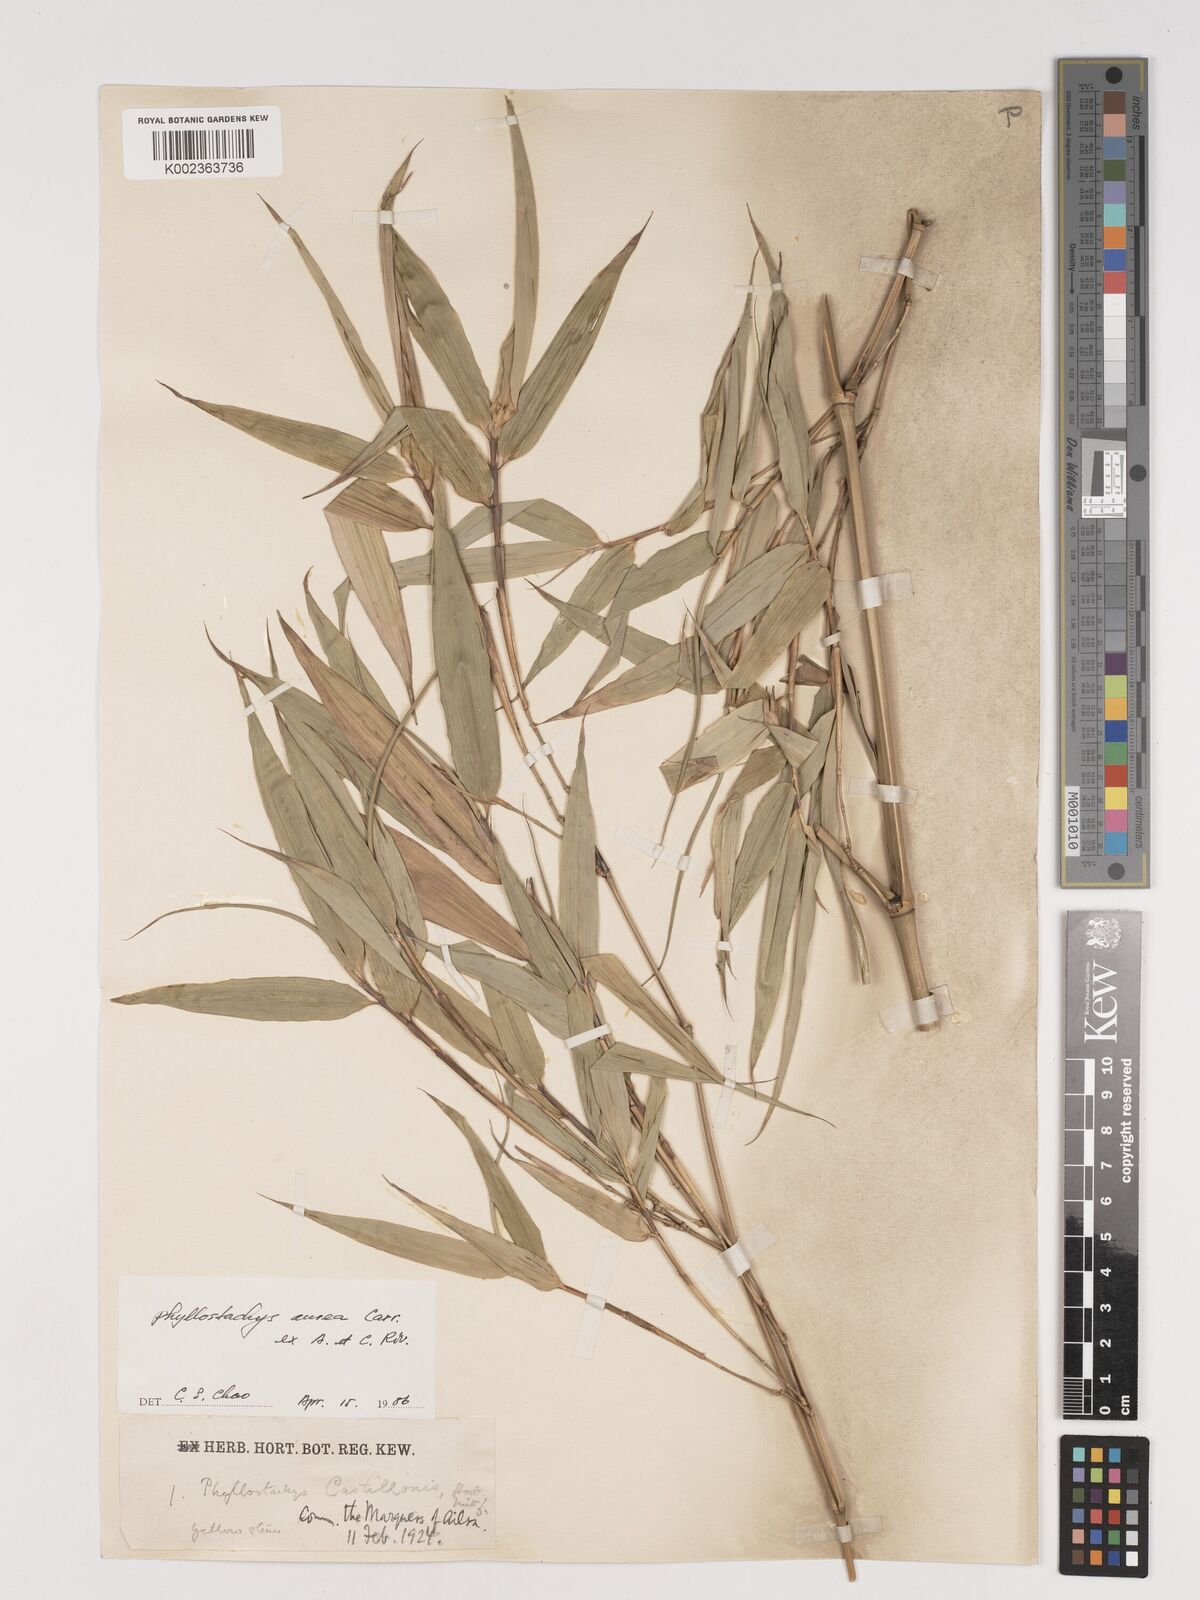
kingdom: Plantae
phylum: Tracheophyta
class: Liliopsida
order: Poales
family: Poaceae
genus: Phyllostachys
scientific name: Phyllostachys aurea
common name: Golden bamboo
